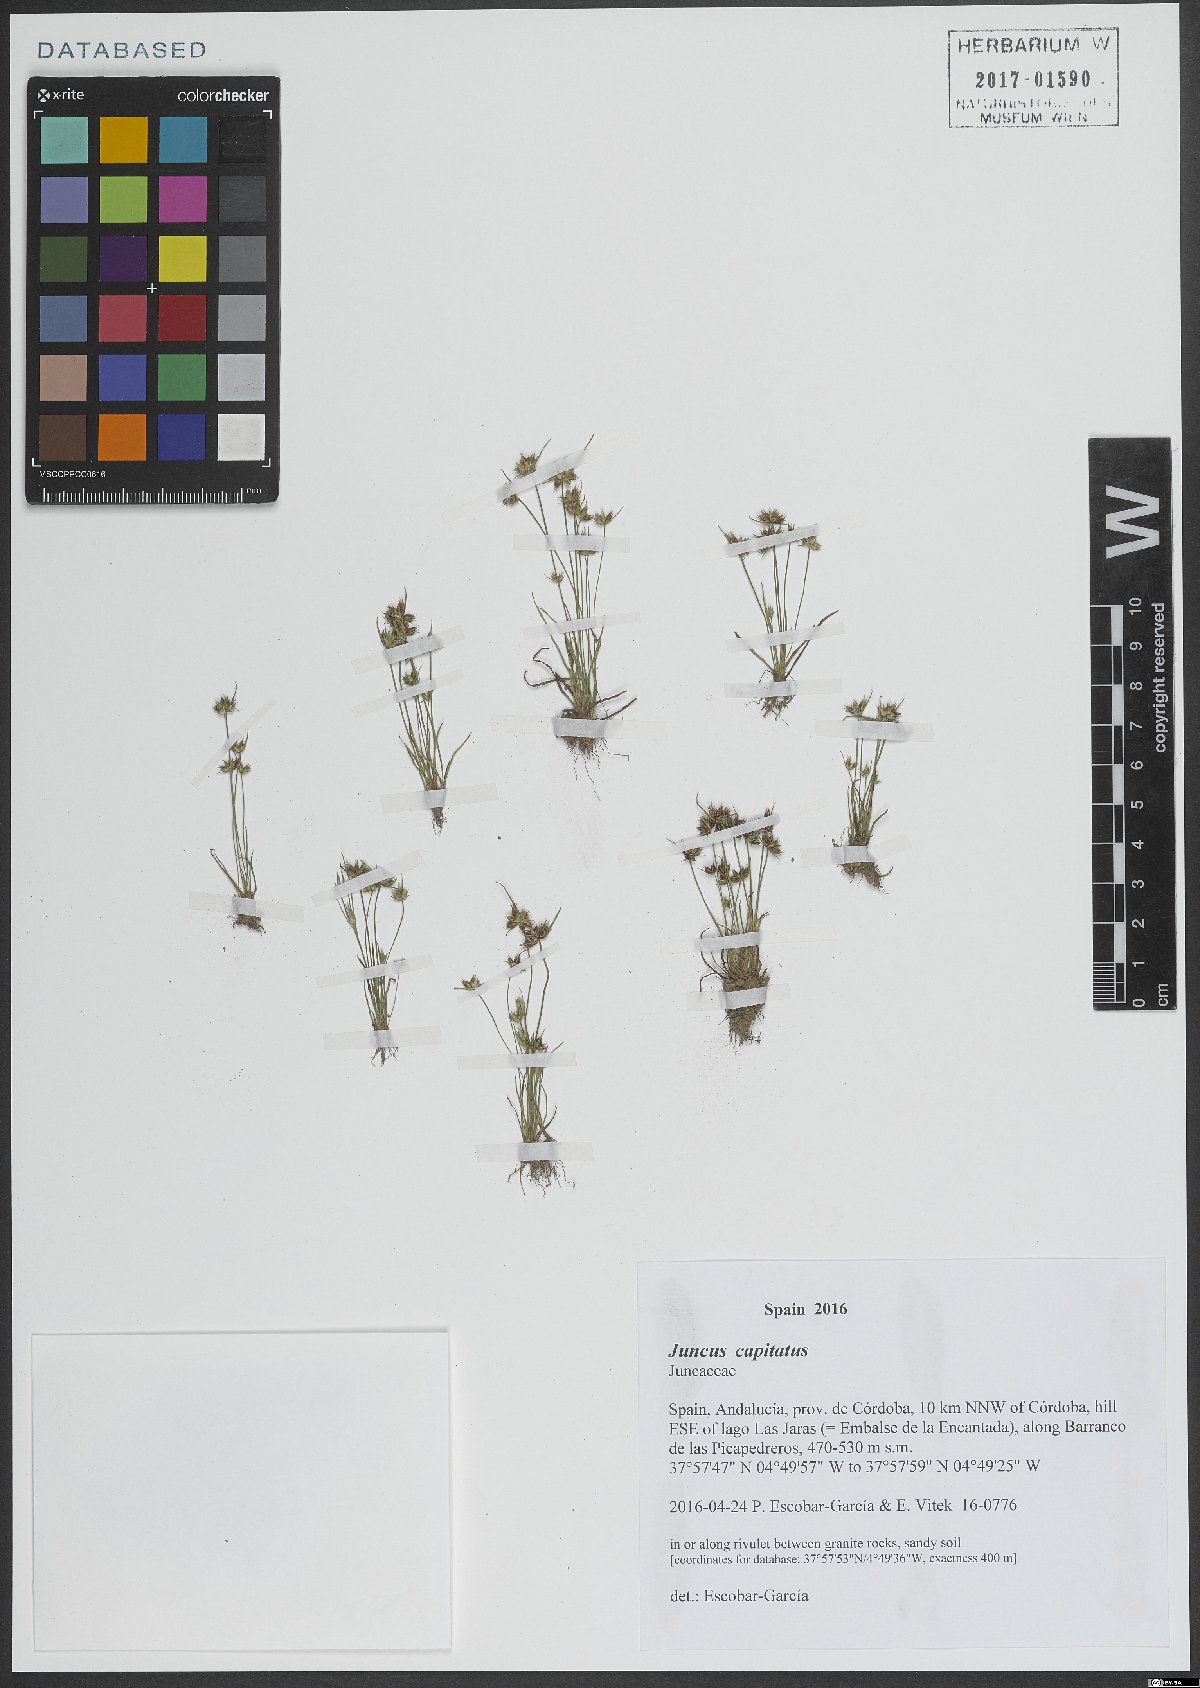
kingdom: Plantae
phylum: Tracheophyta
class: Liliopsida
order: Poales
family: Juncaceae
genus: Juncus
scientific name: Juncus capitatus
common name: Dwarf rush
